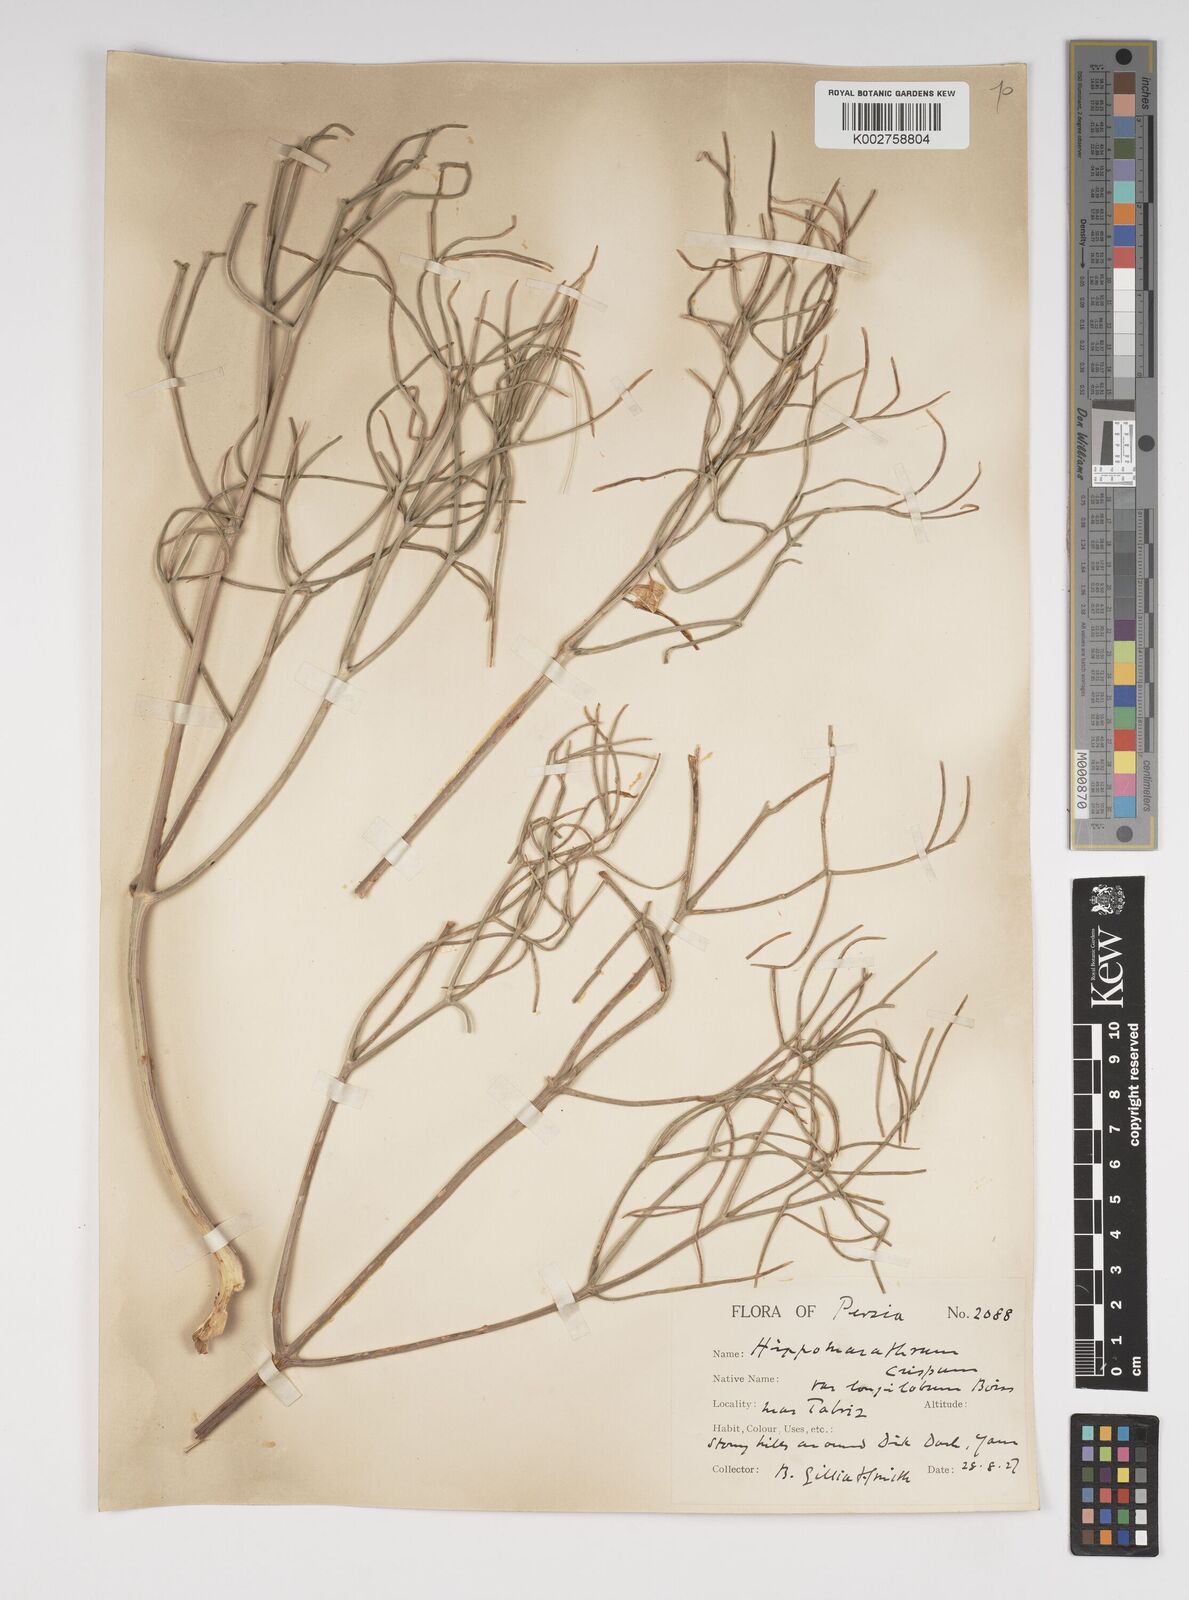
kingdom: Plantae
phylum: Tracheophyta
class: Magnoliopsida
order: Apiales
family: Apiaceae
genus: Bilacunaria
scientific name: Bilacunaria microcarpa
